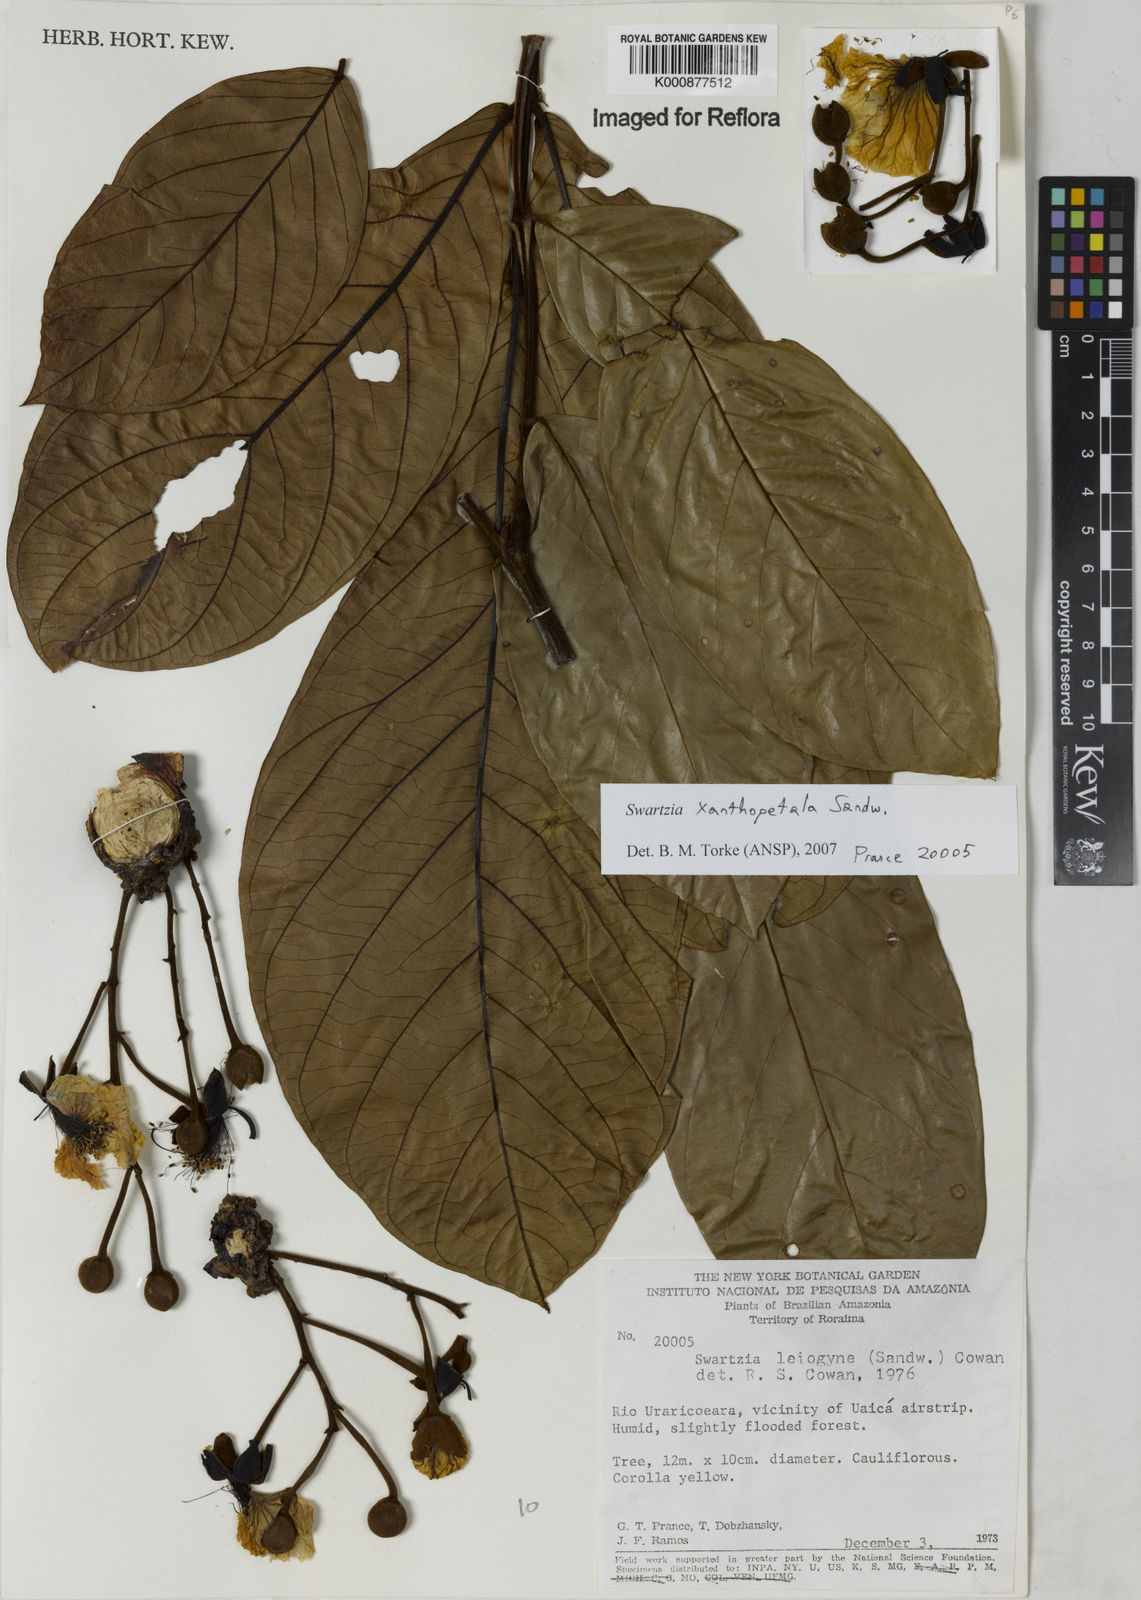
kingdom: Plantae
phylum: Tracheophyta
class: Magnoliopsida
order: Fabales
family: Fabaceae
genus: Swartzia
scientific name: Swartzia xanthopetala
